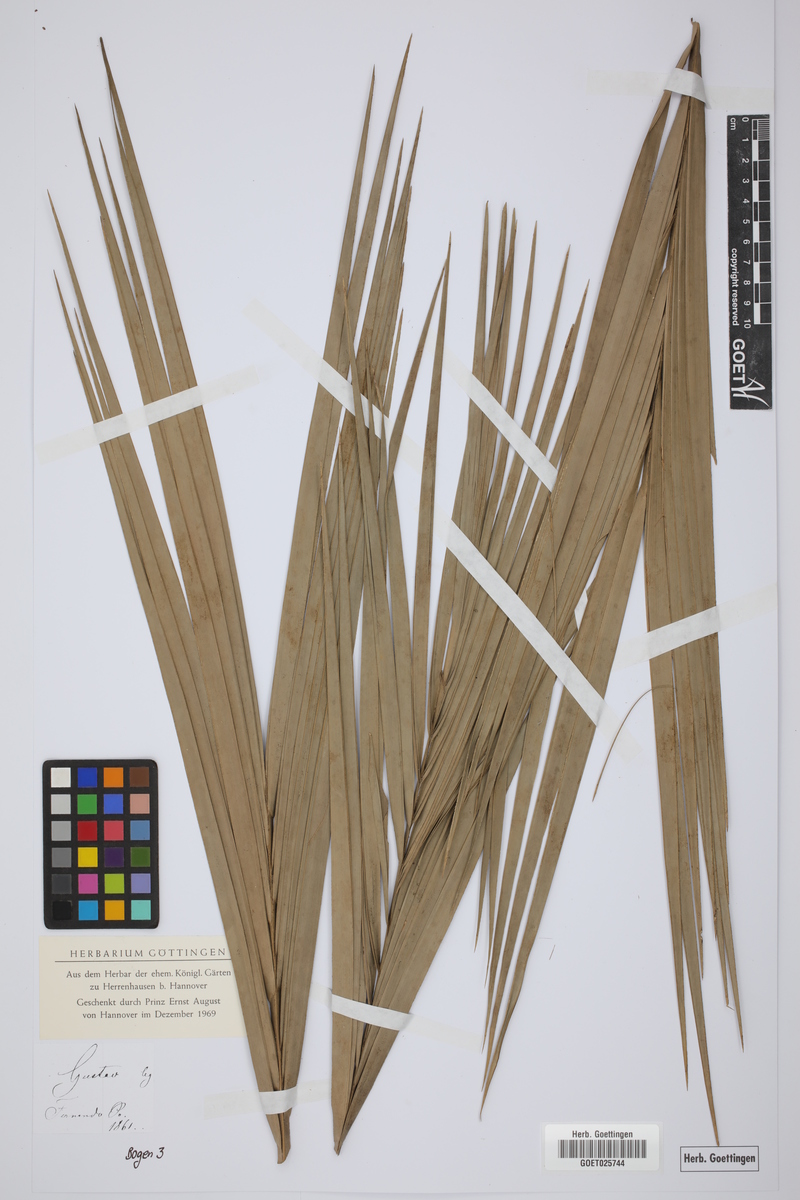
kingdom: Plantae
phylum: Tracheophyta
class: Liliopsida
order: Arecales
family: Arecaceae
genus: Phoenix
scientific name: Phoenix reclinata
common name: Senegal date palm
